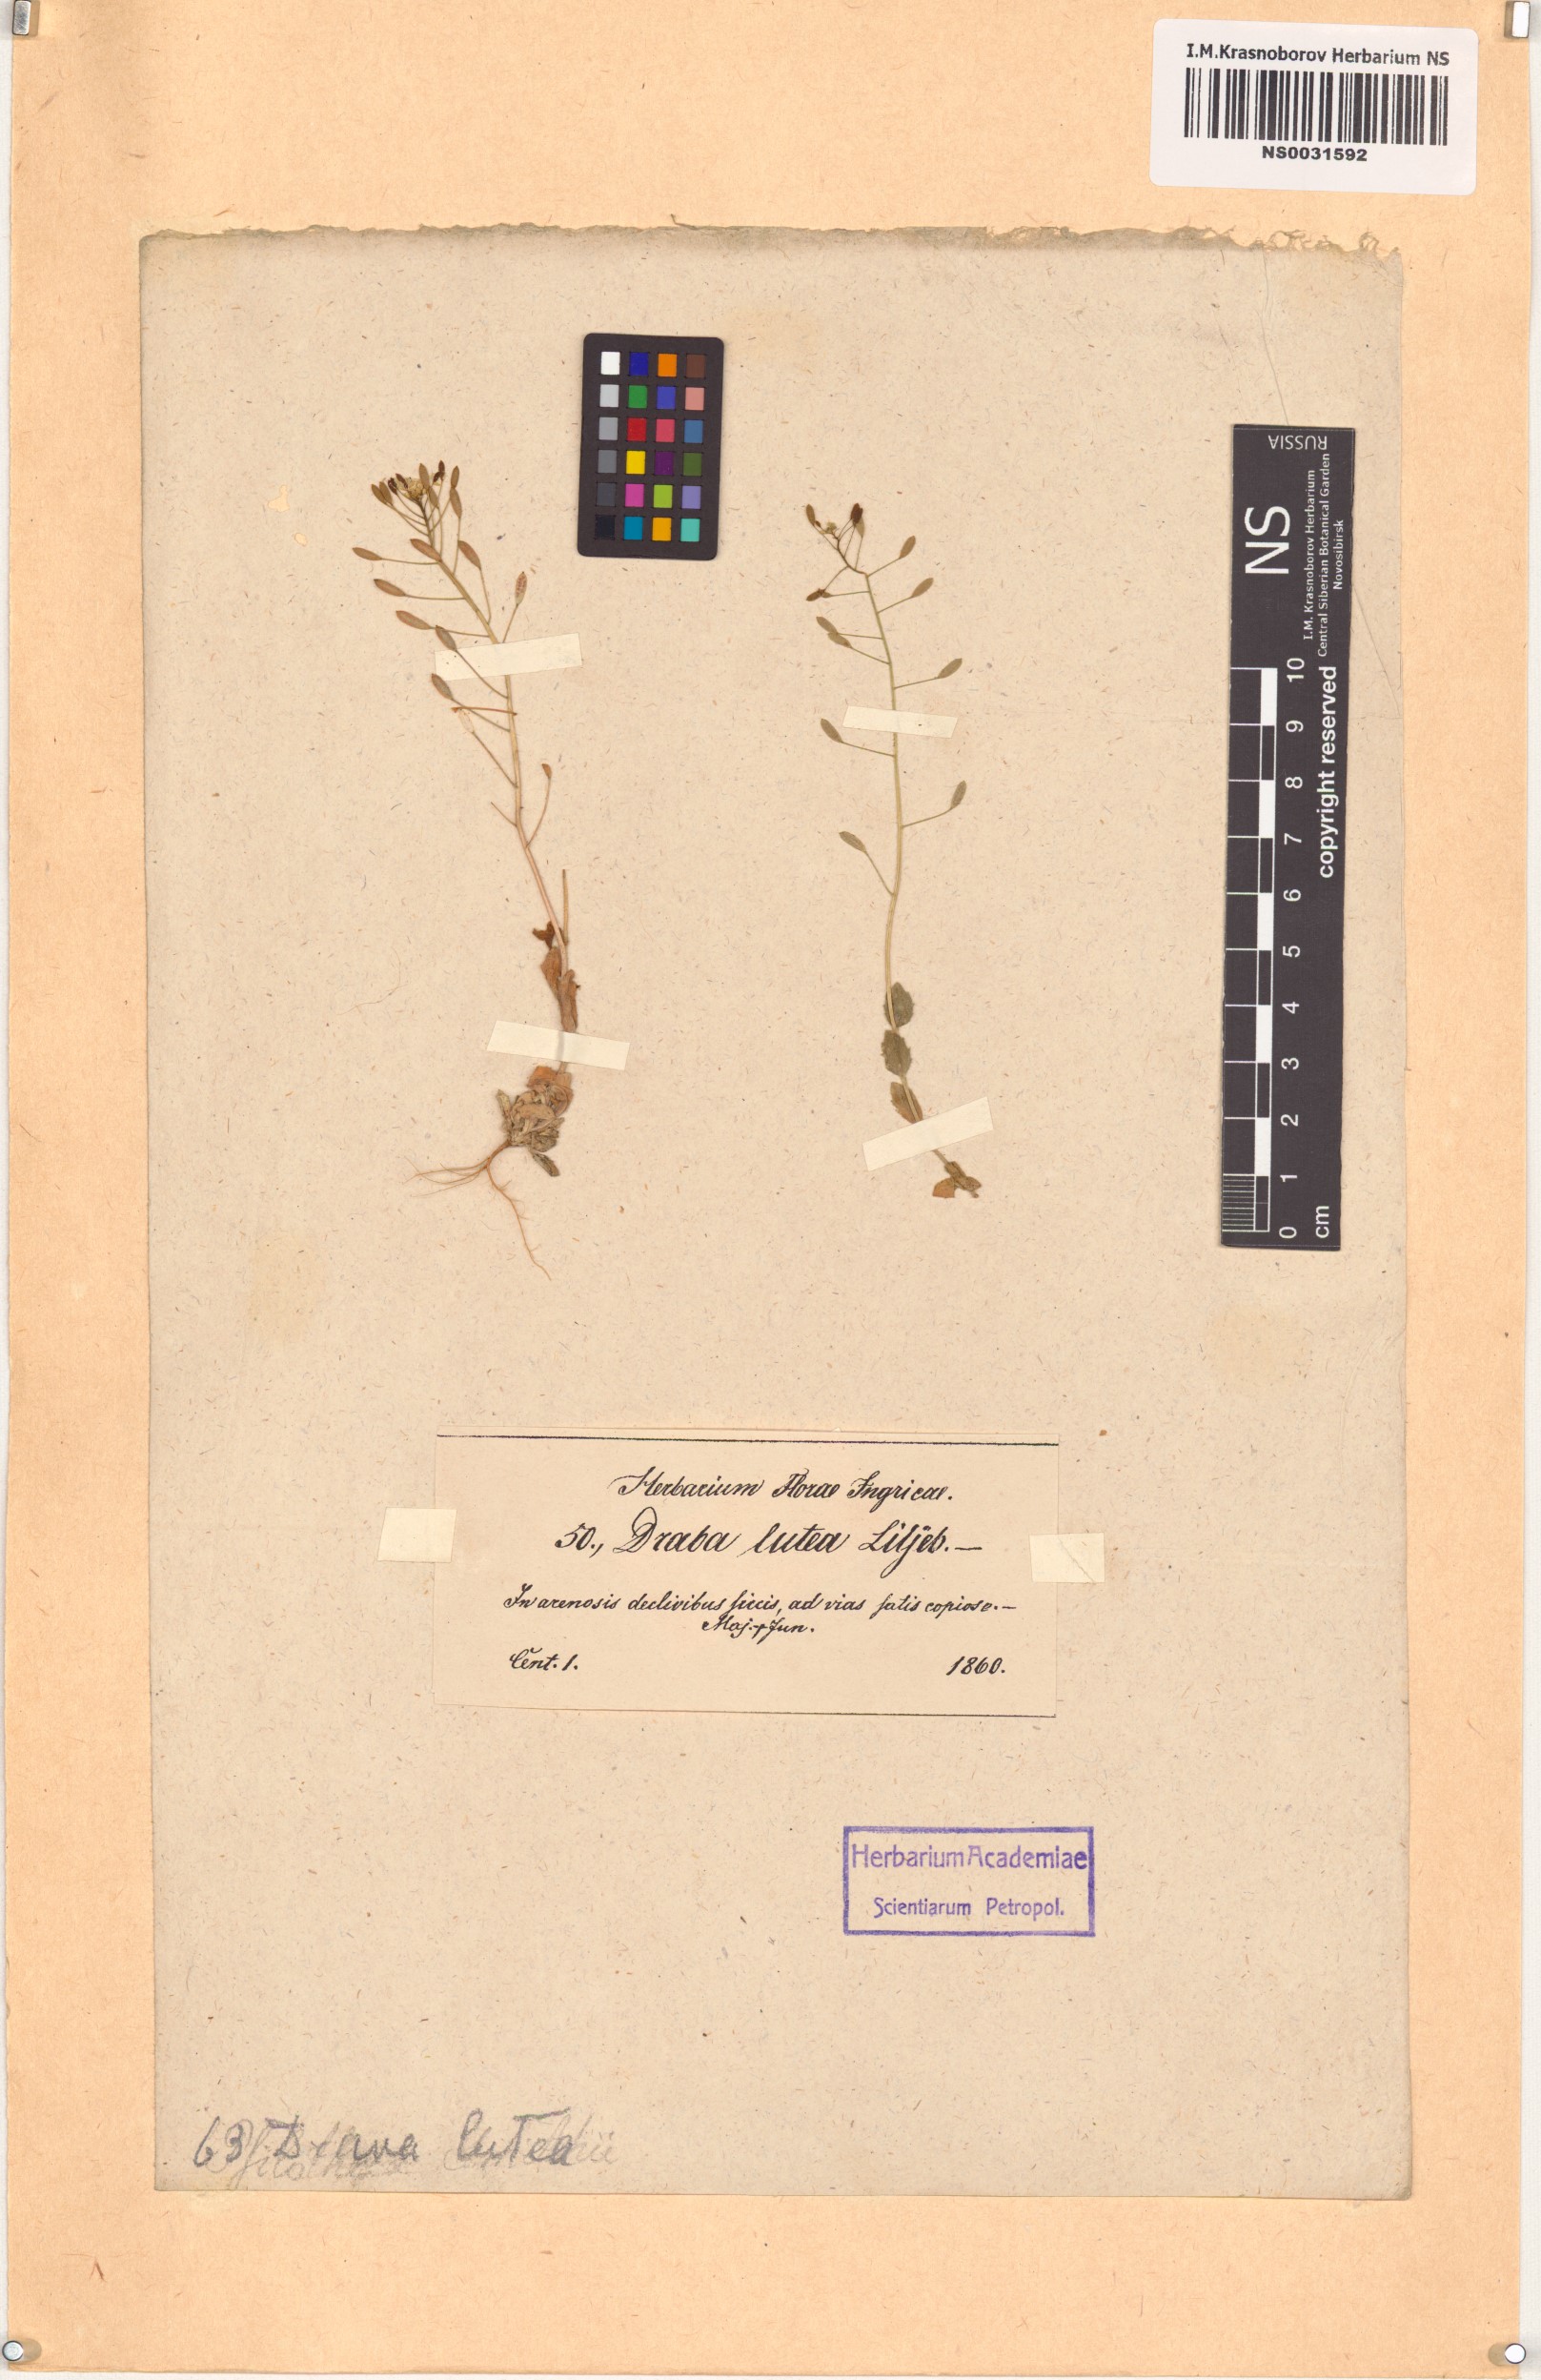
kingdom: Plantae
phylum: Tracheophyta
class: Magnoliopsida
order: Brassicales
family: Brassicaceae
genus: Draba
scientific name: Draba nemorosa
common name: Wood whitlow-grass
